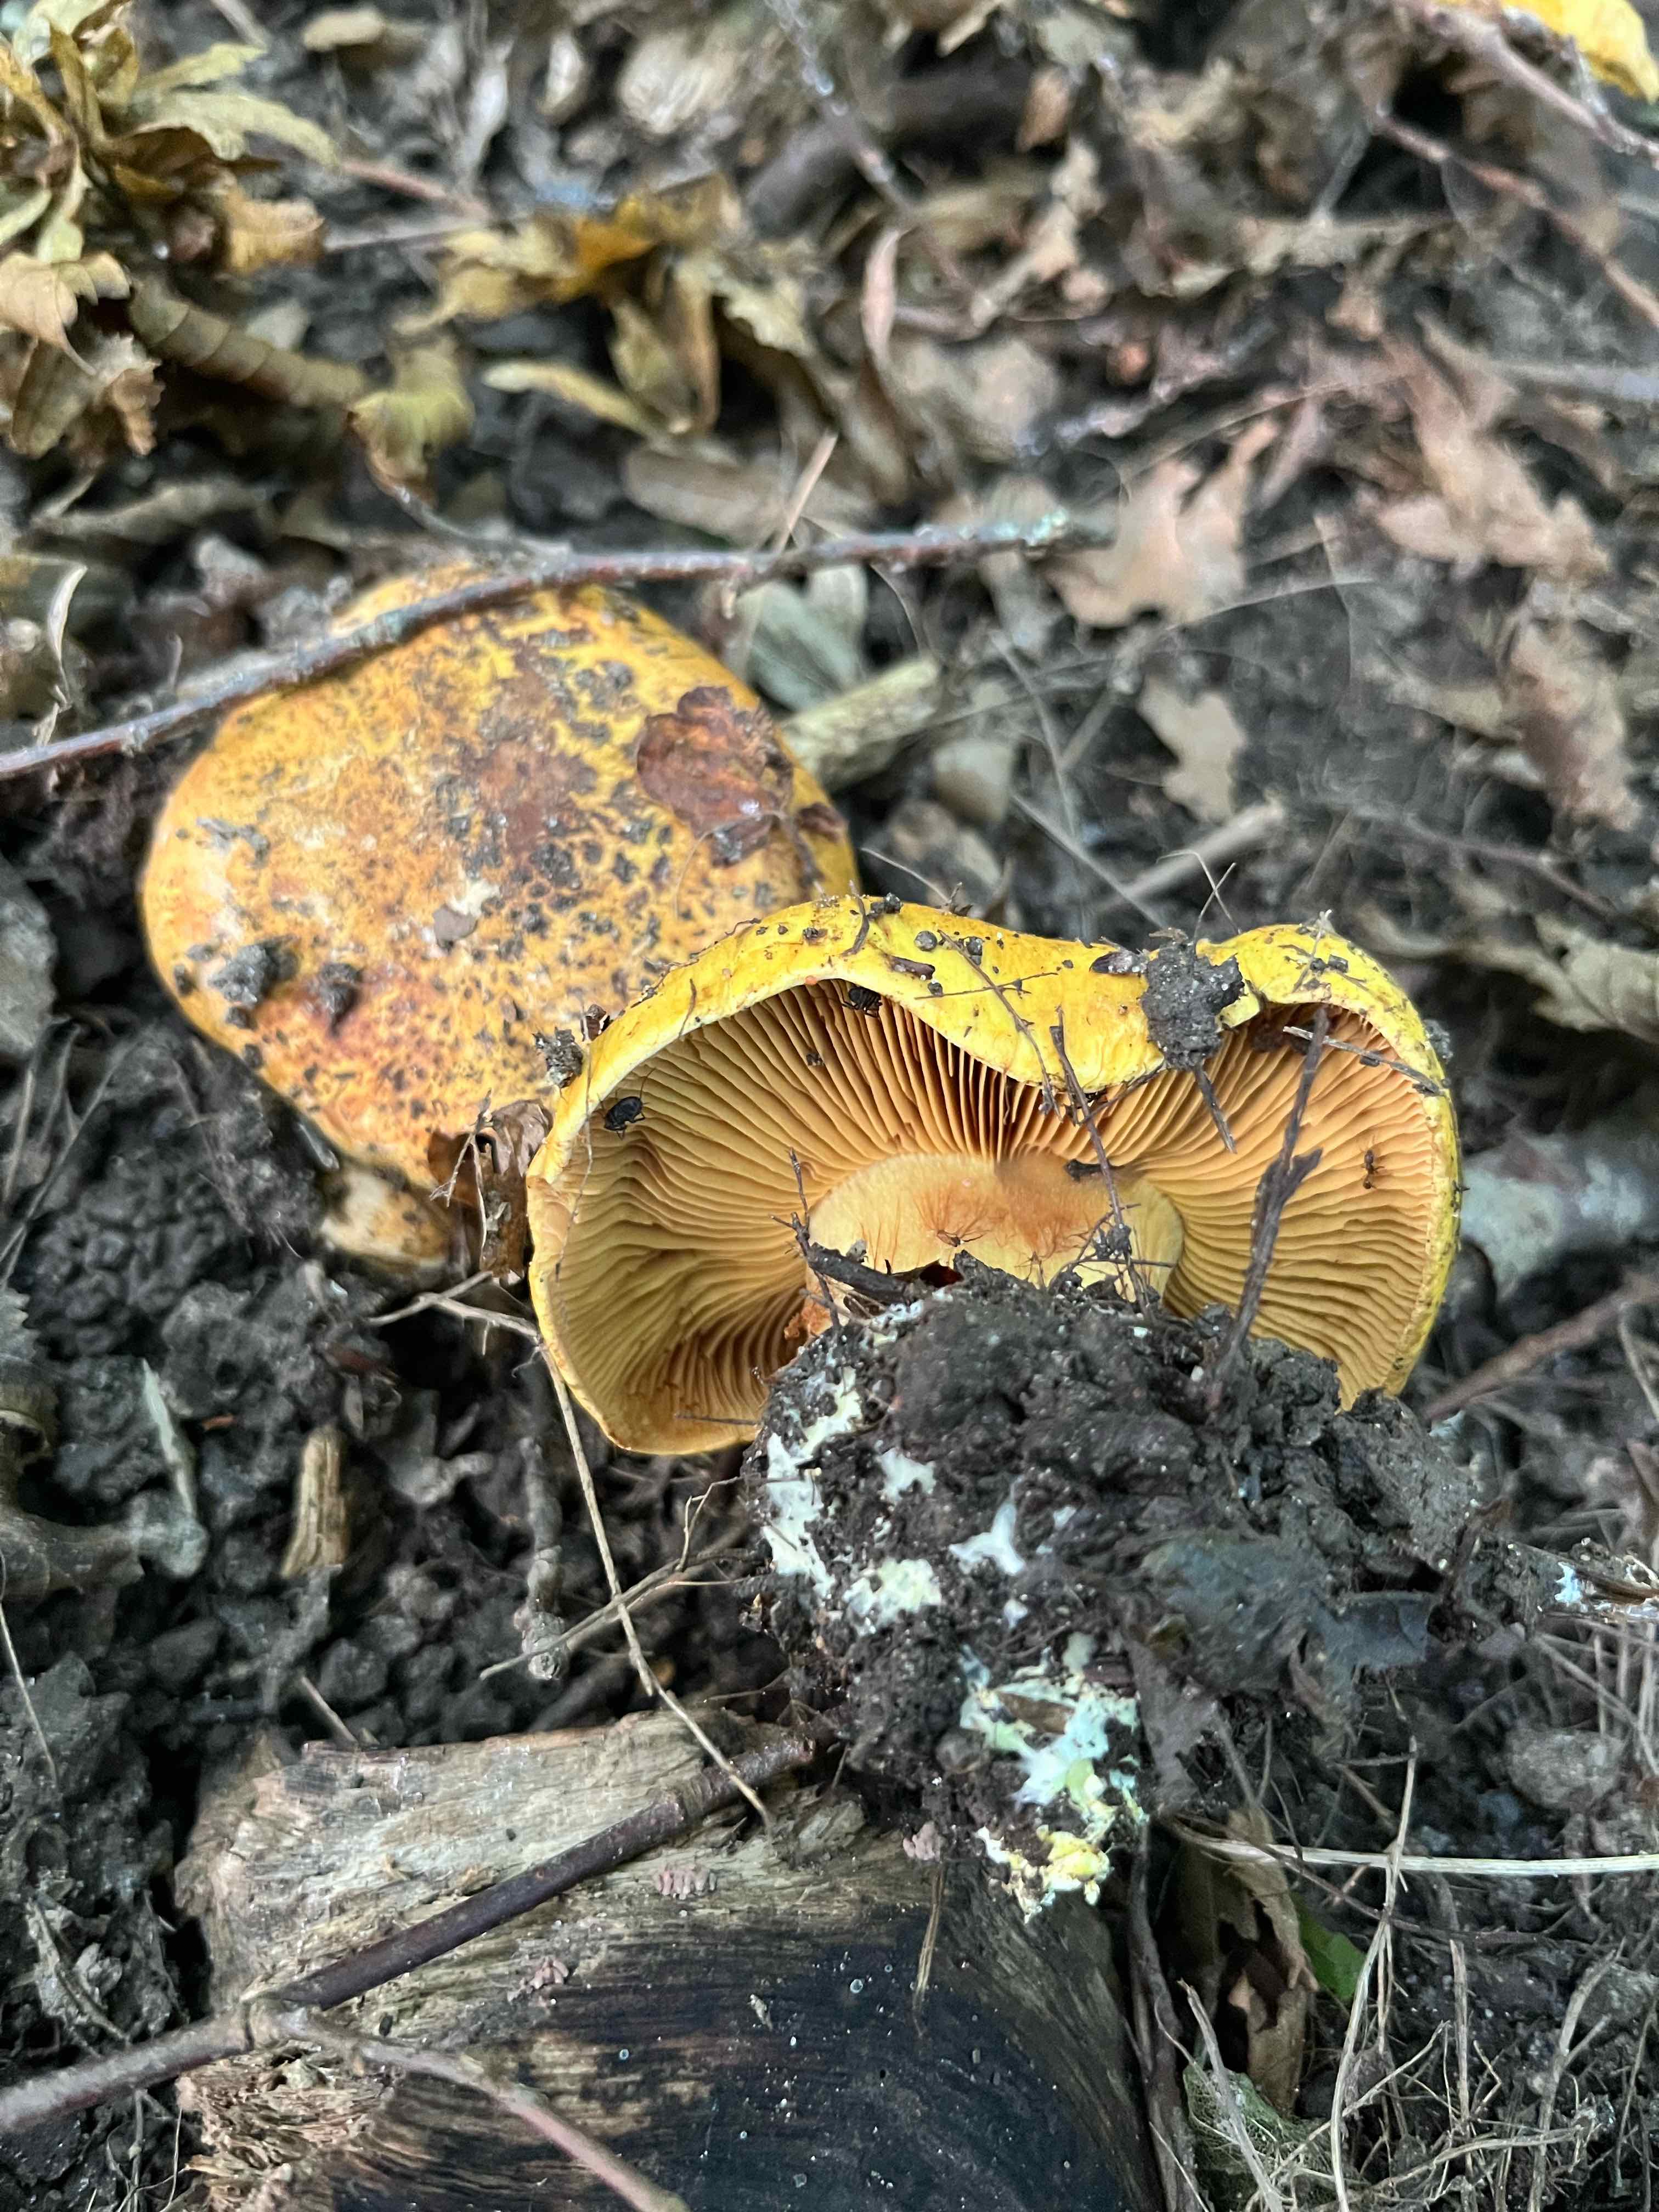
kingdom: Fungi
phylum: Basidiomycota
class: Agaricomycetes
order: Agaricales
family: Cortinariaceae
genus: Calonarius
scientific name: Calonarius alcalinophilus
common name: gyldenbrun slørhat
